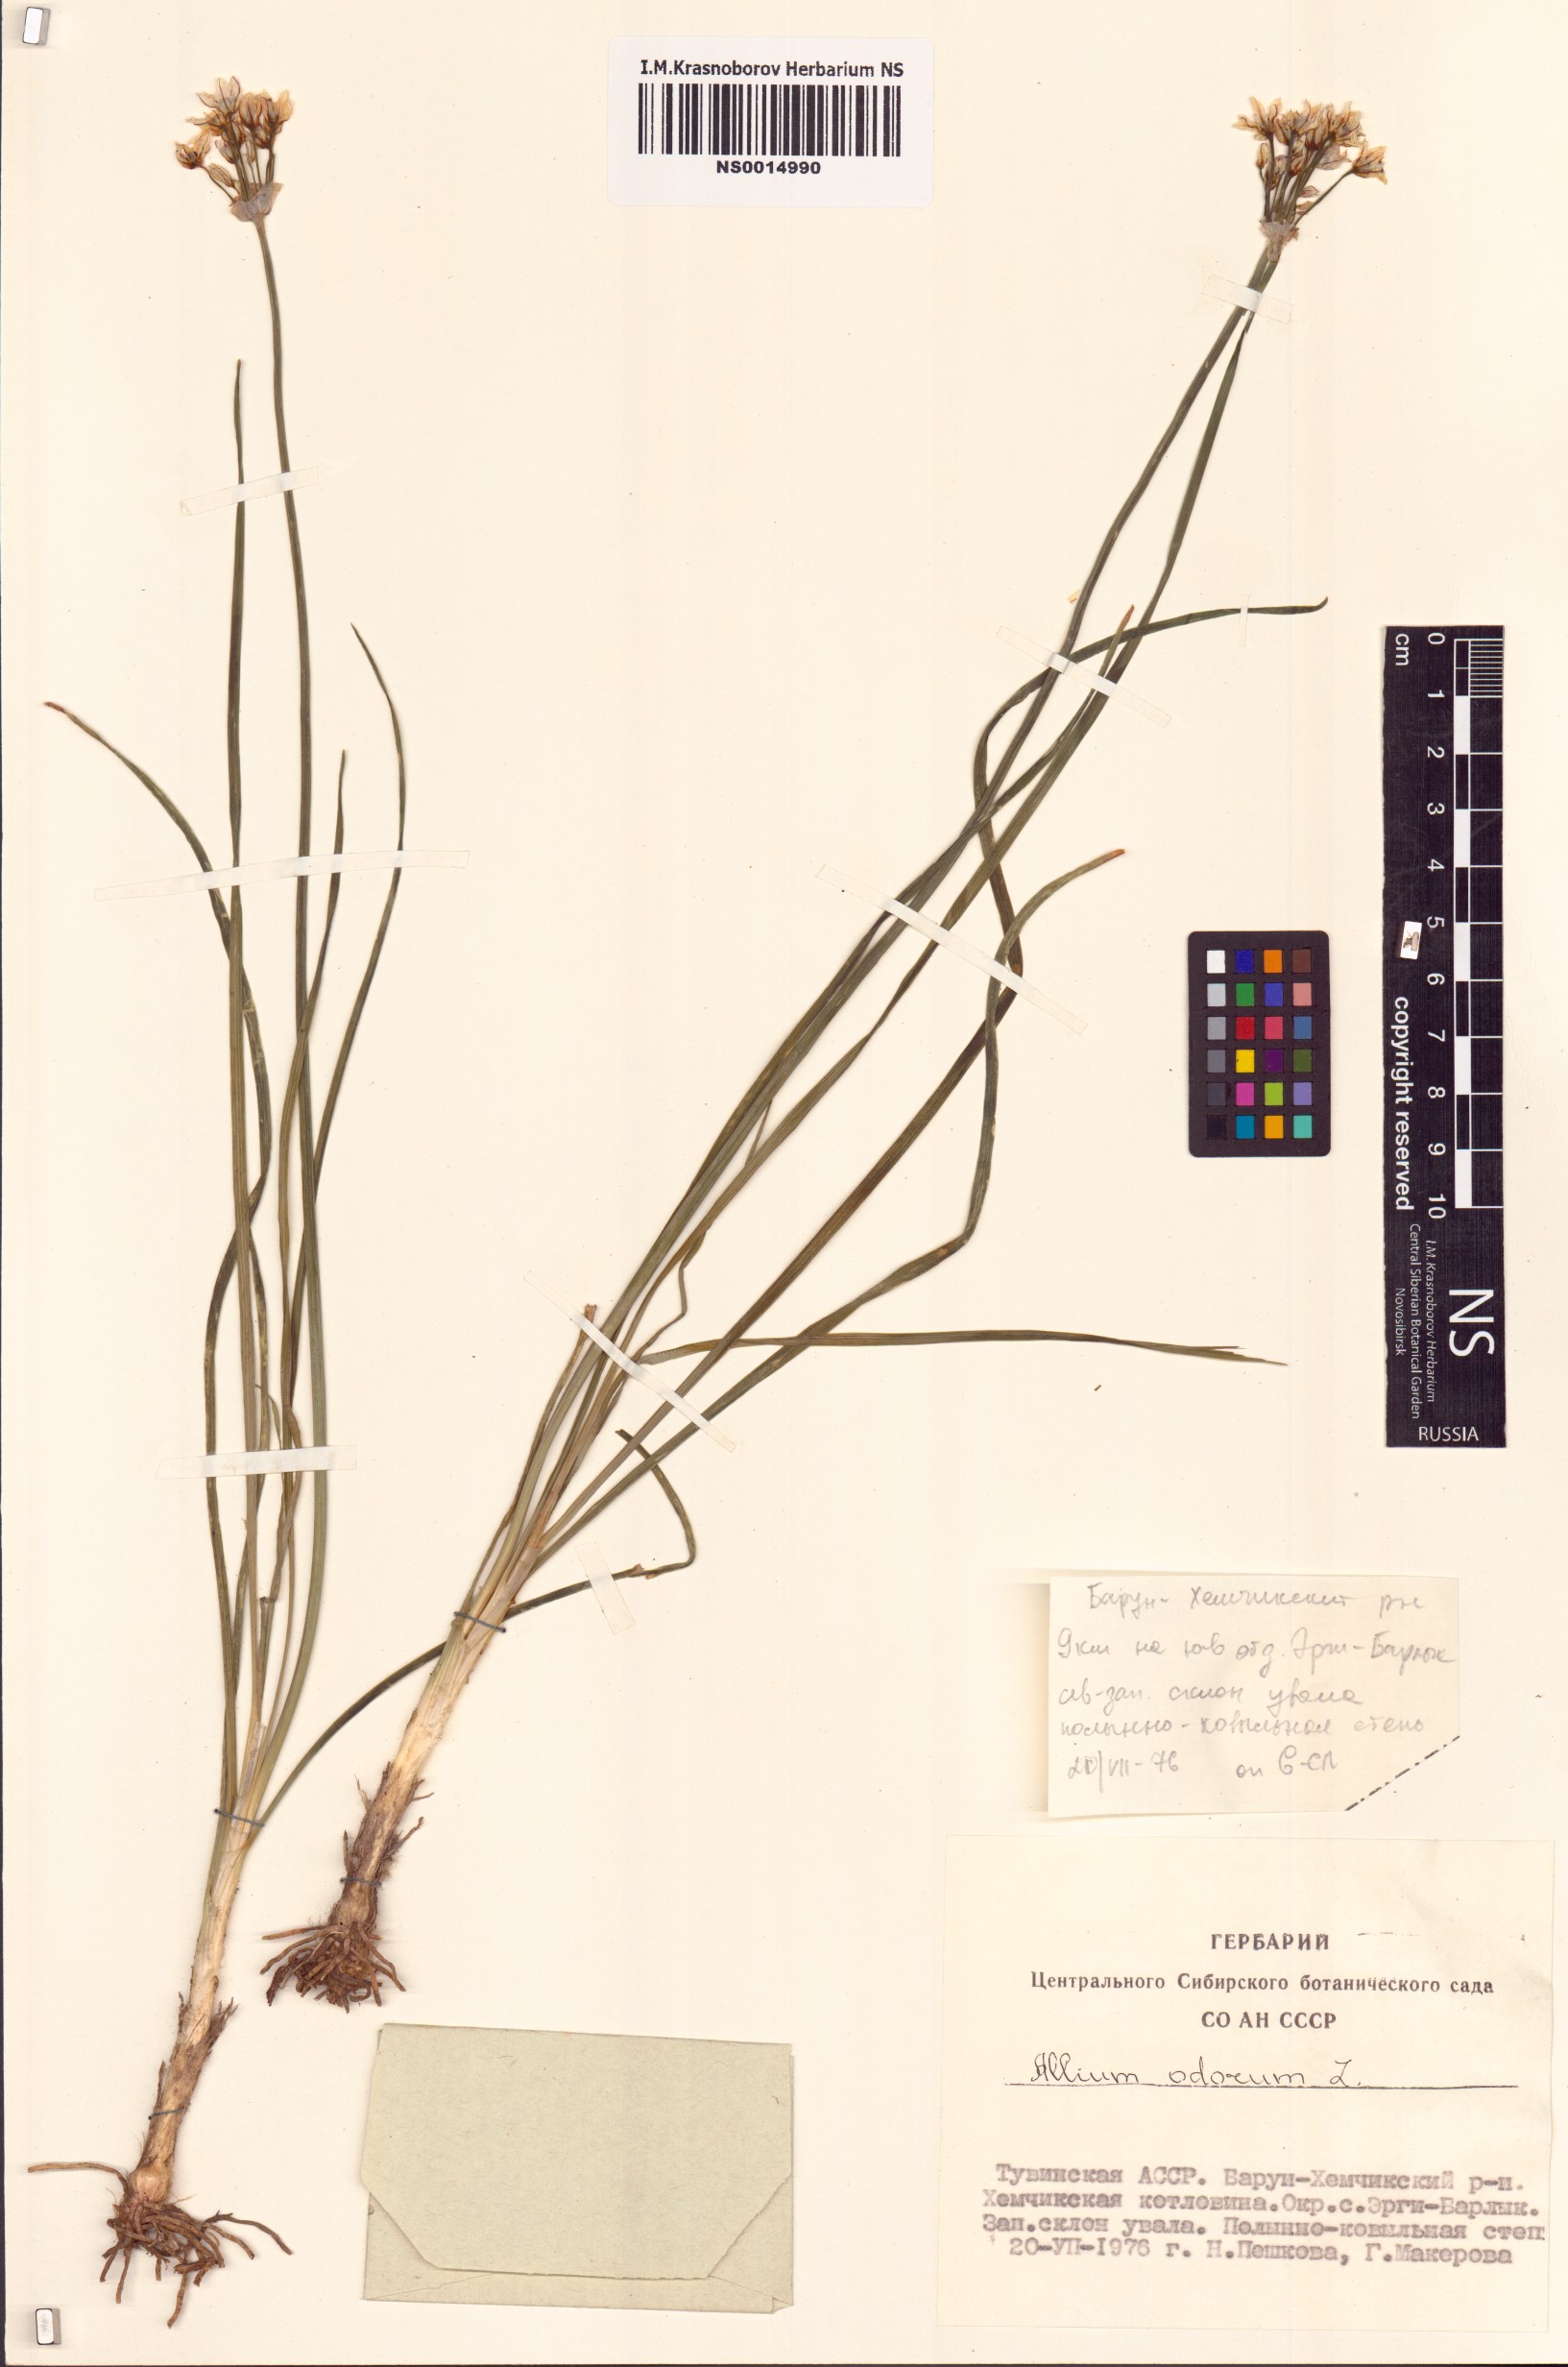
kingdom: Plantae
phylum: Tracheophyta
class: Liliopsida
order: Asparagales
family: Amaryllidaceae
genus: Allium
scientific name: Allium ramosum
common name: Fragrant garlic
